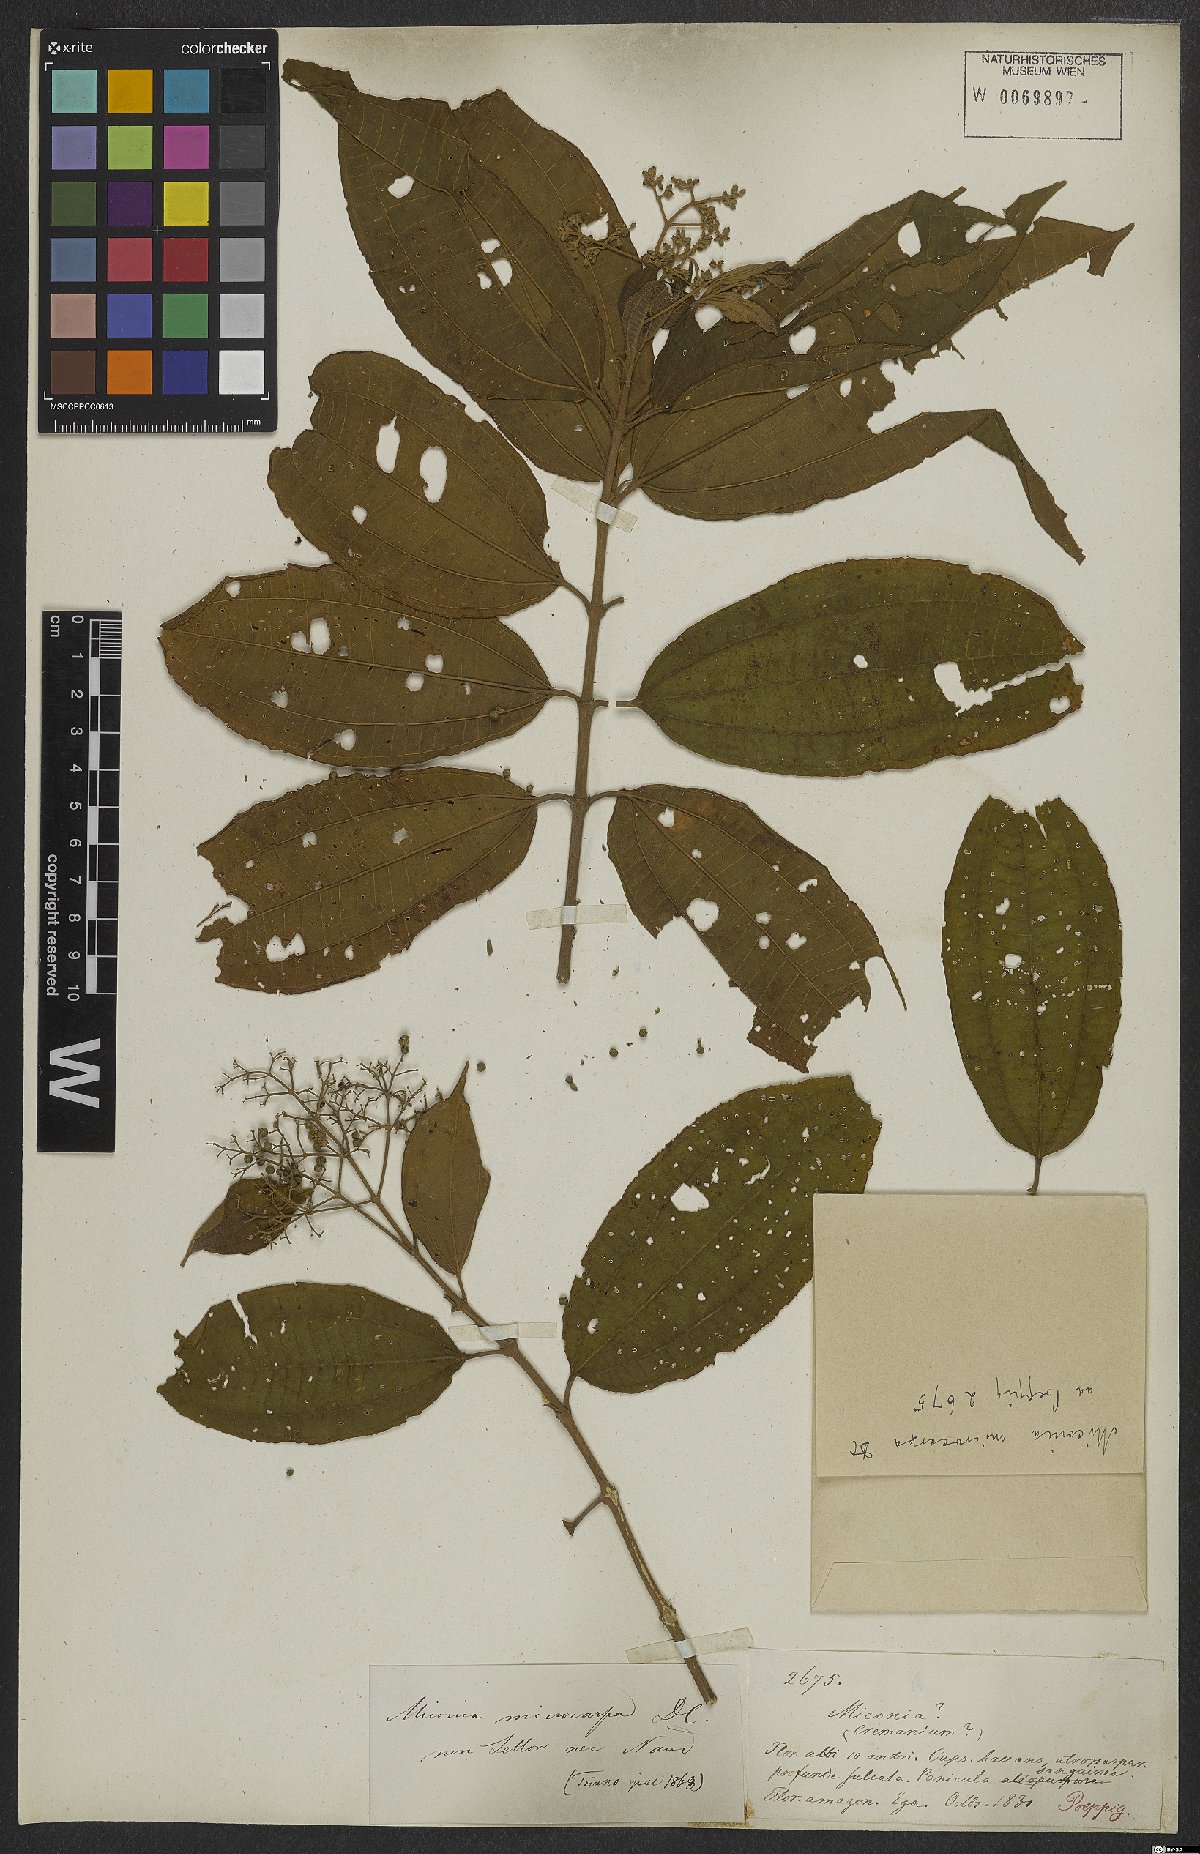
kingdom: Plantae
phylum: Tracheophyta
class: Magnoliopsida
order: Myrtales
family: Melastomataceae
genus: Miconia
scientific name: Miconia affinis
